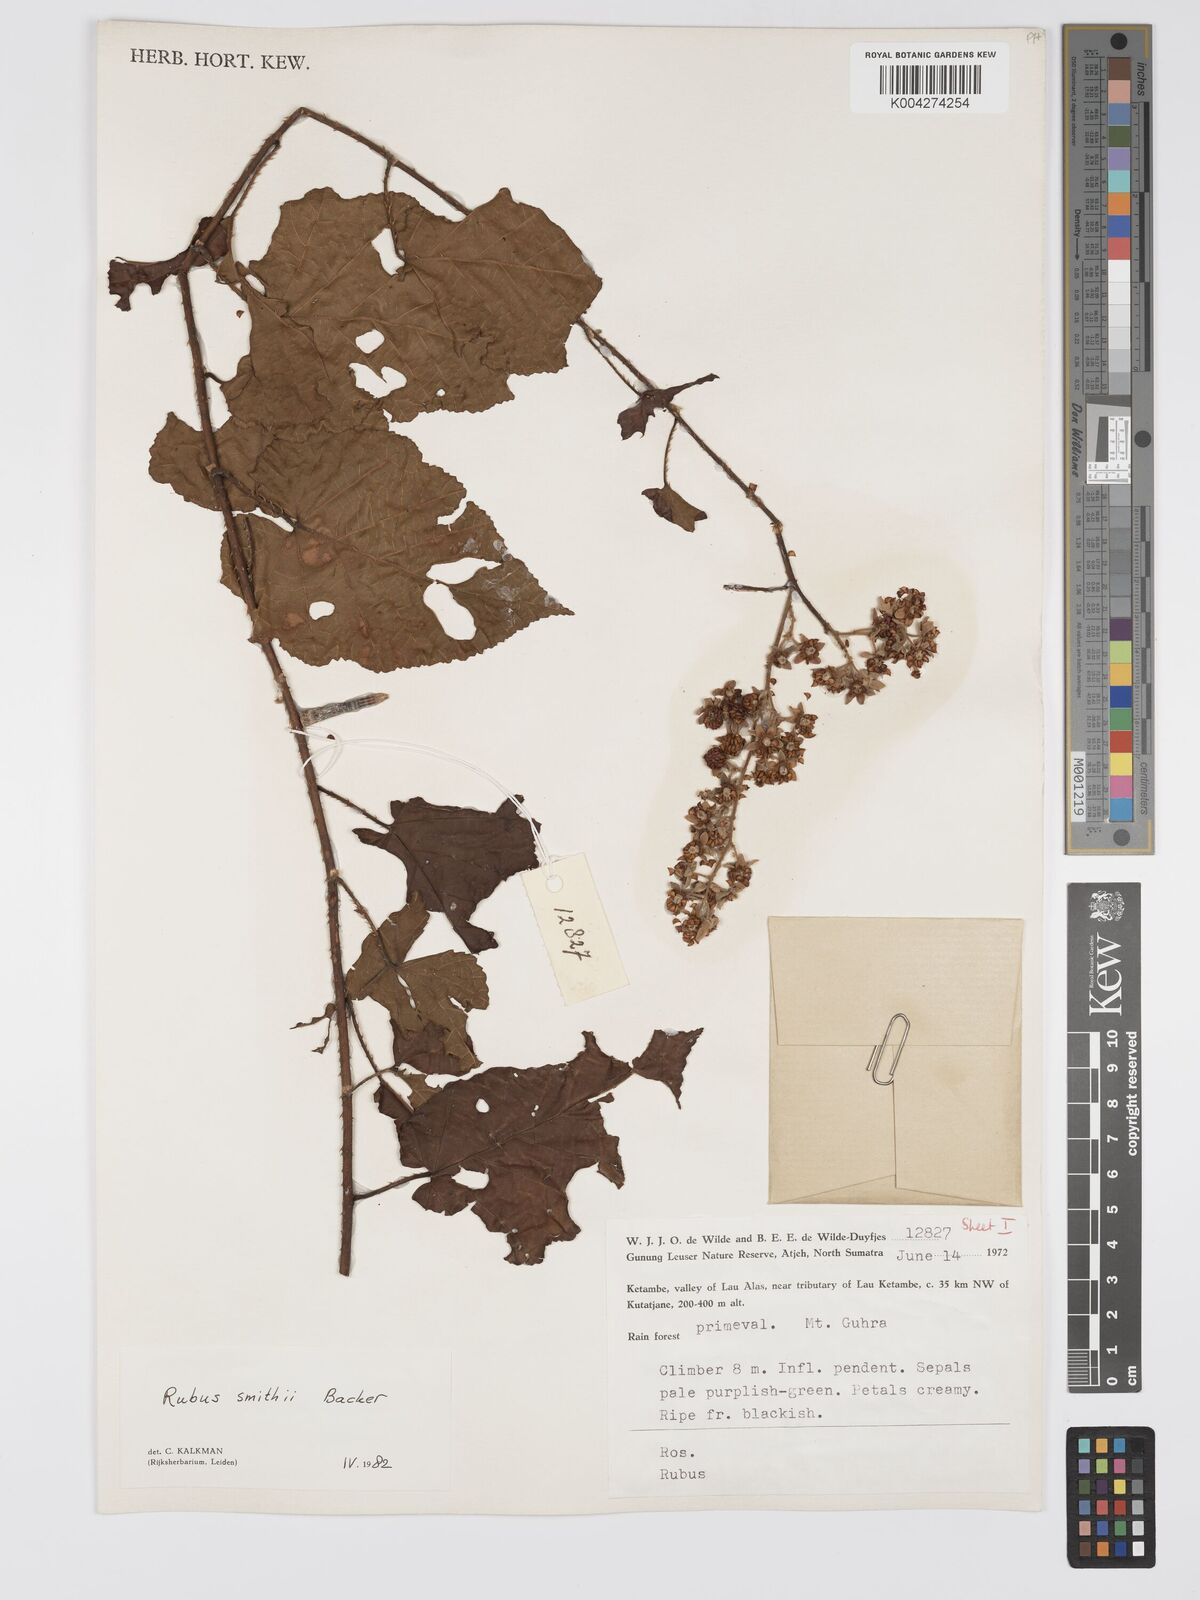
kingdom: Plantae
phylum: Tracheophyta
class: Magnoliopsida
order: Rosales
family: Rosaceae
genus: Rubus
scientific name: Rubus
